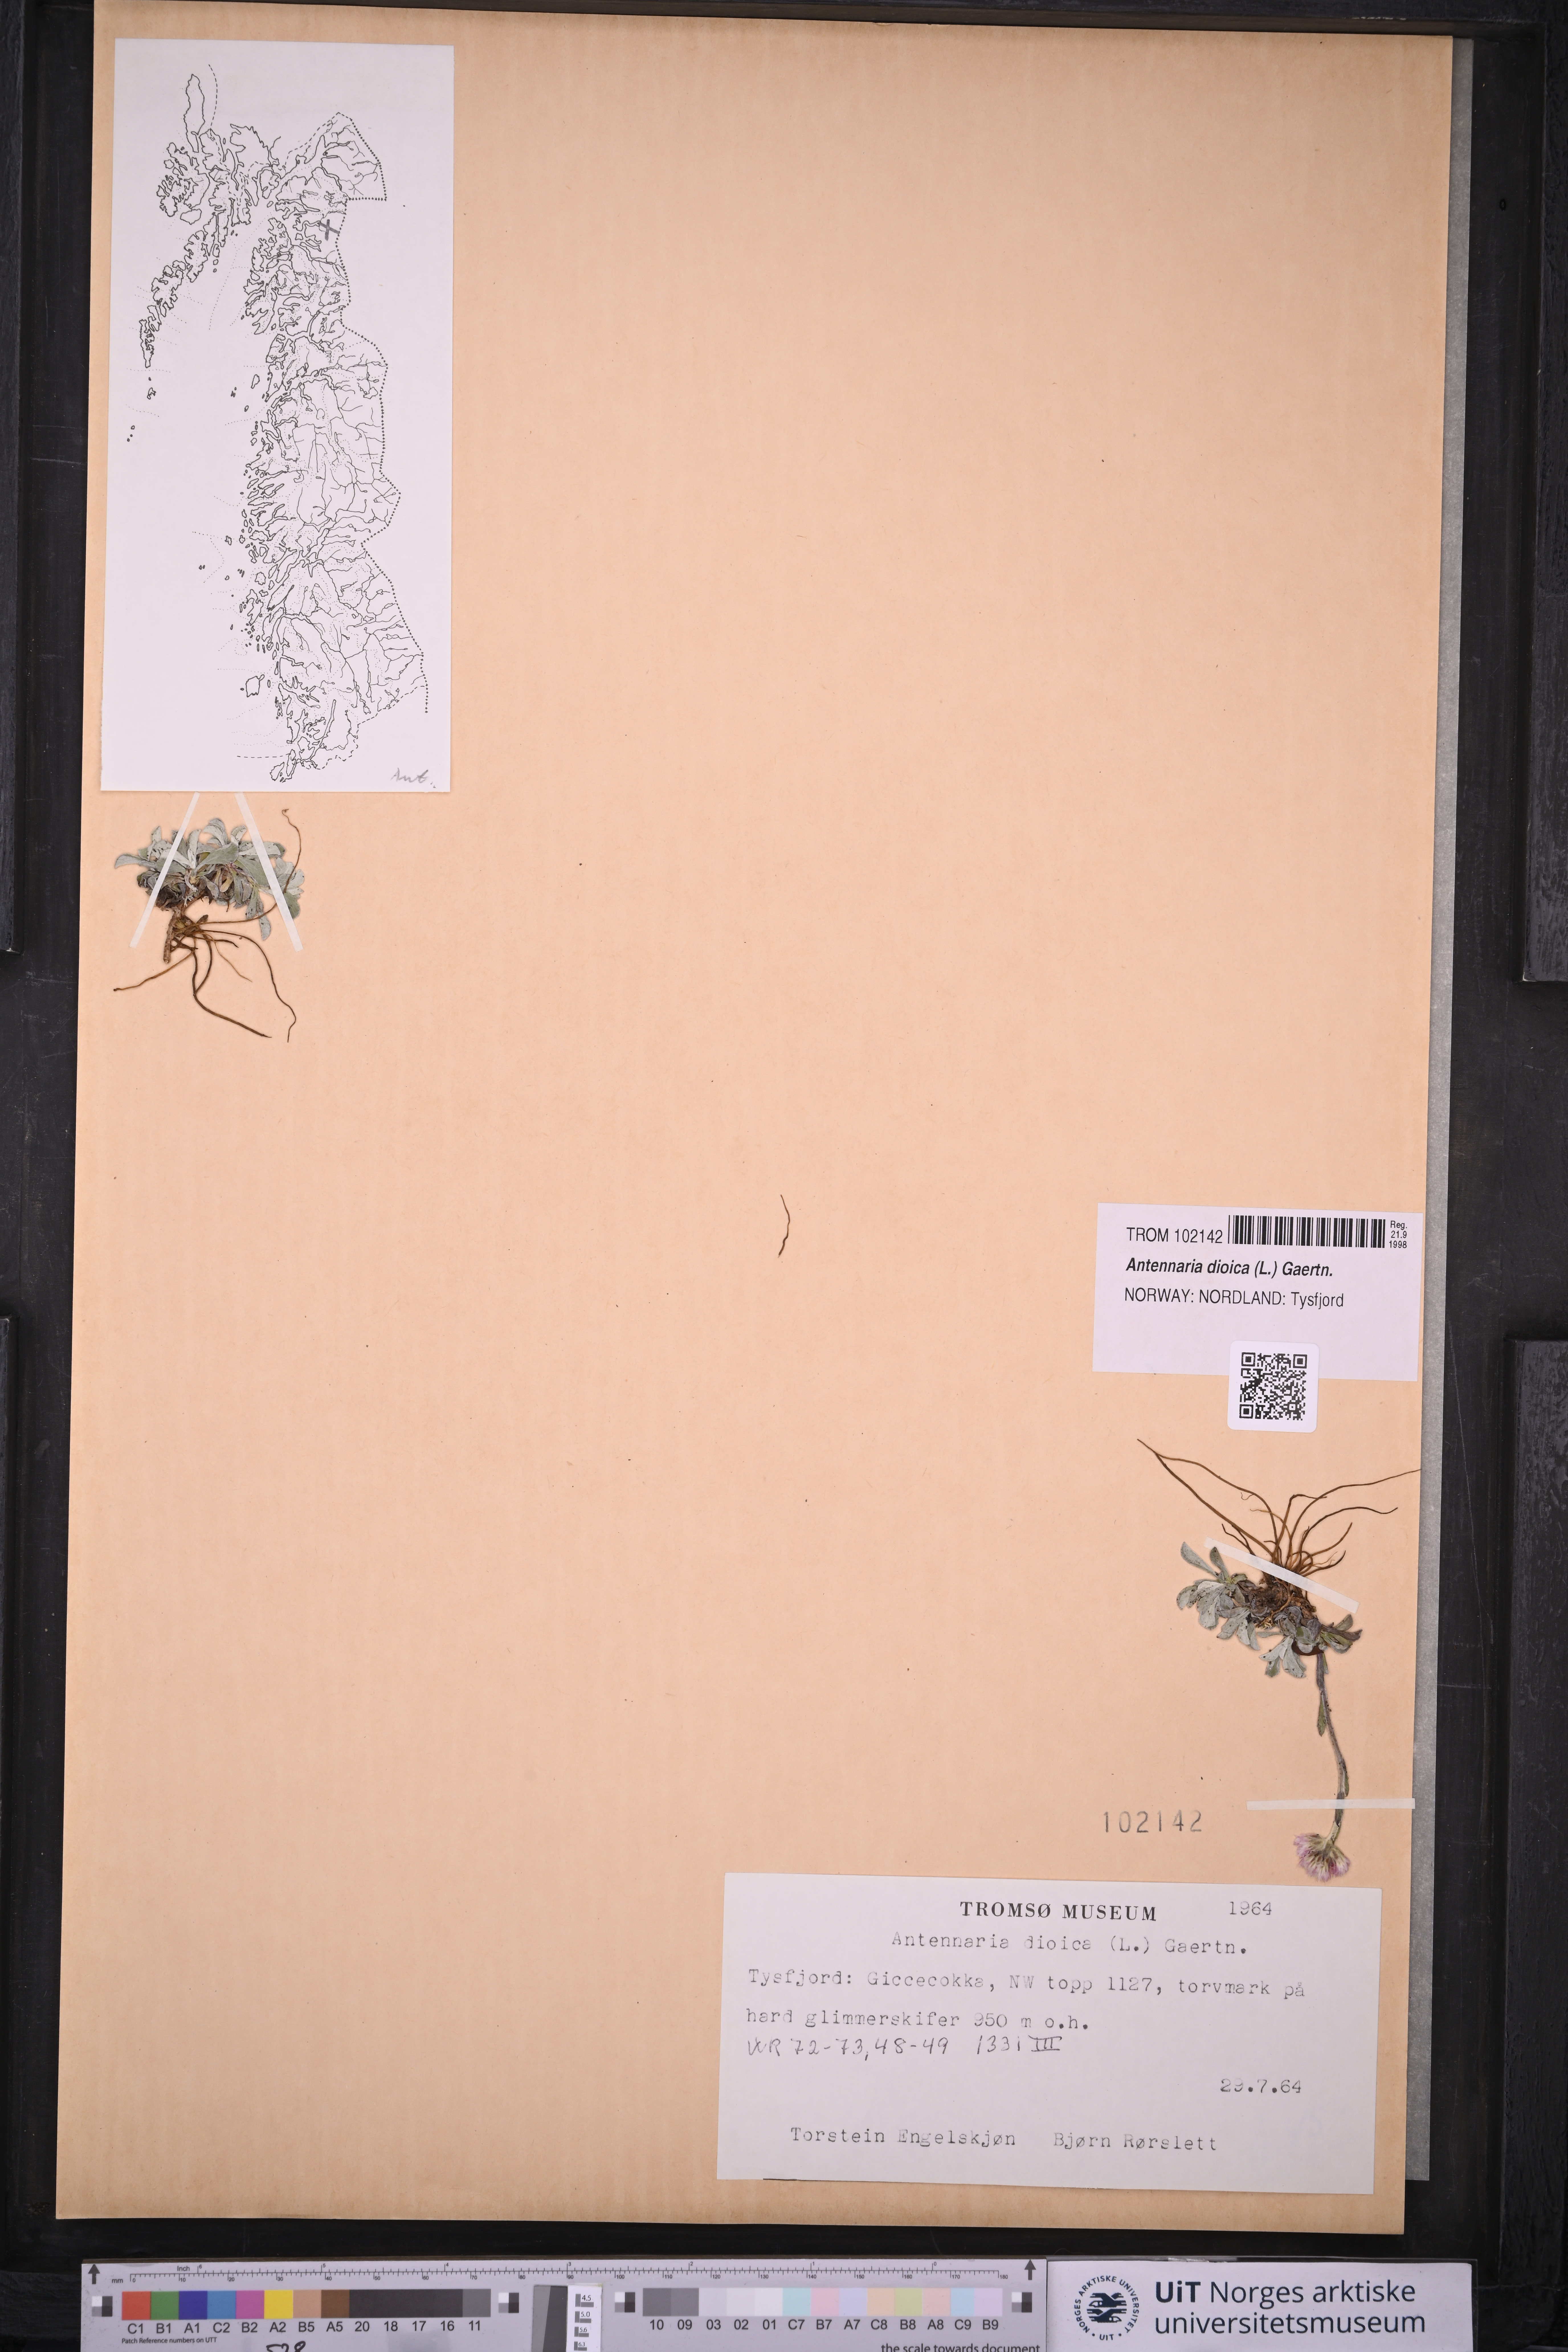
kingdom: Plantae
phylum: Tracheophyta
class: Magnoliopsida
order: Asterales
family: Asteraceae
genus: Antennaria
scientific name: Antennaria dioica
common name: Mountain everlasting
